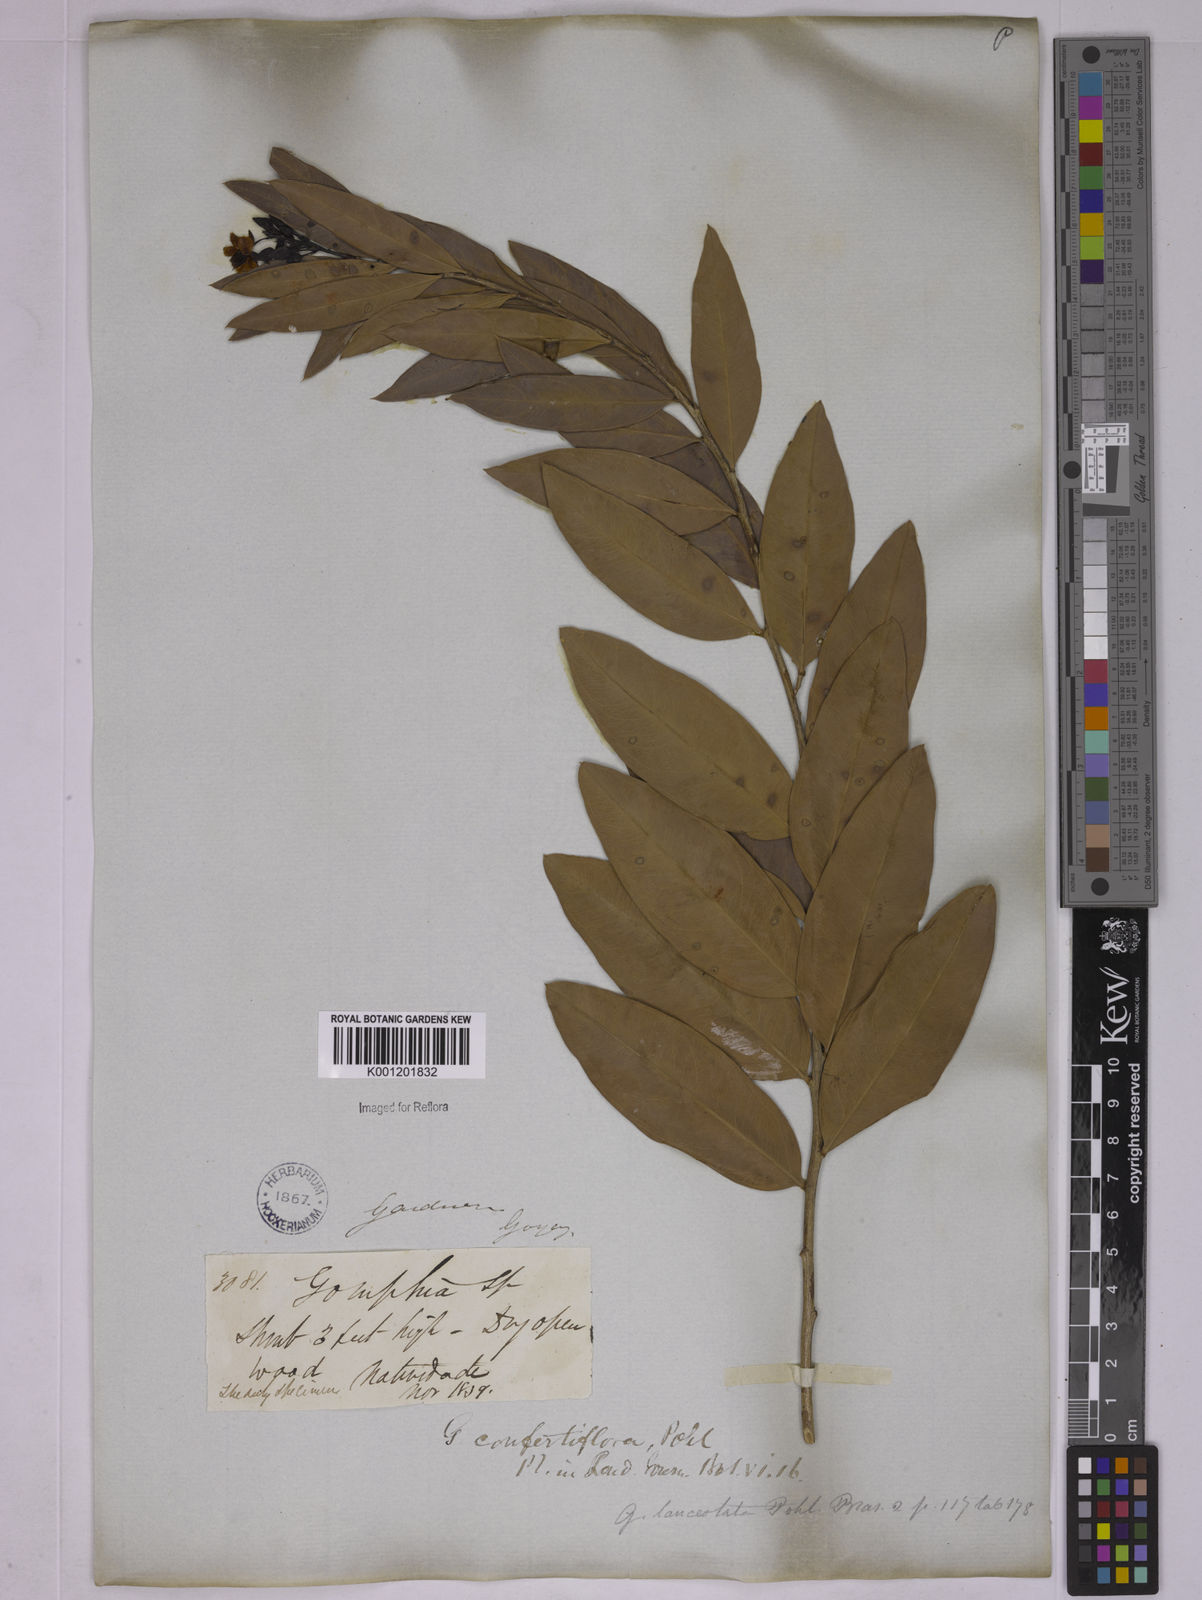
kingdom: Plantae
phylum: Tracheophyta
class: Magnoliopsida
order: Malpighiales
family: Ochnaceae
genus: Ouratea
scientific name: Ouratea confertiflora
